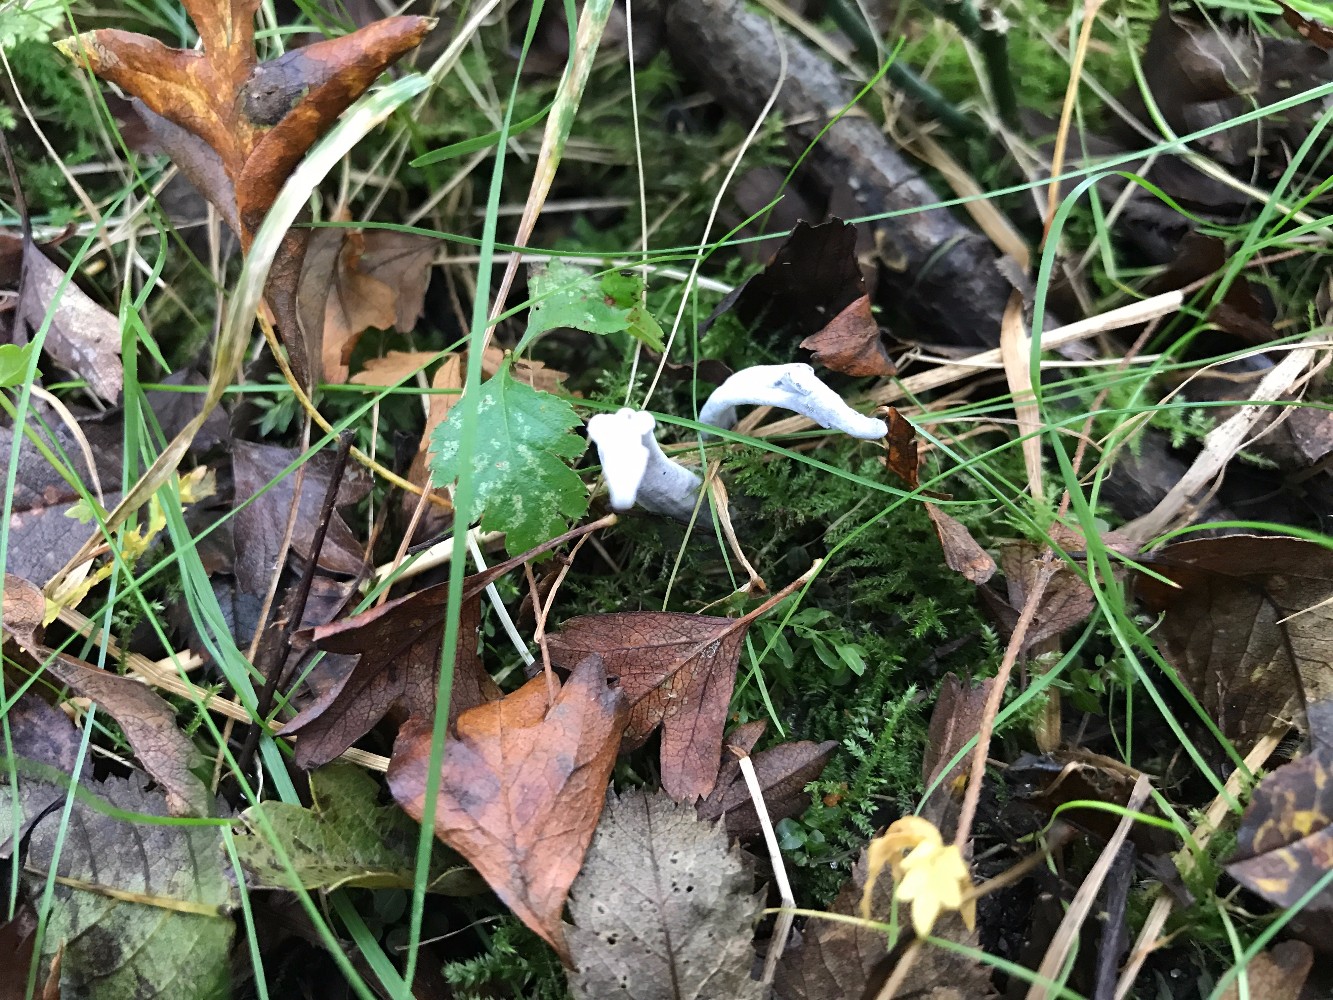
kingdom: Fungi
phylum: Ascomycota
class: Sordariomycetes
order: Xylariales
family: Xylariaceae
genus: Xylaria
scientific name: Xylaria hypoxylon
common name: grenet stødsvamp
